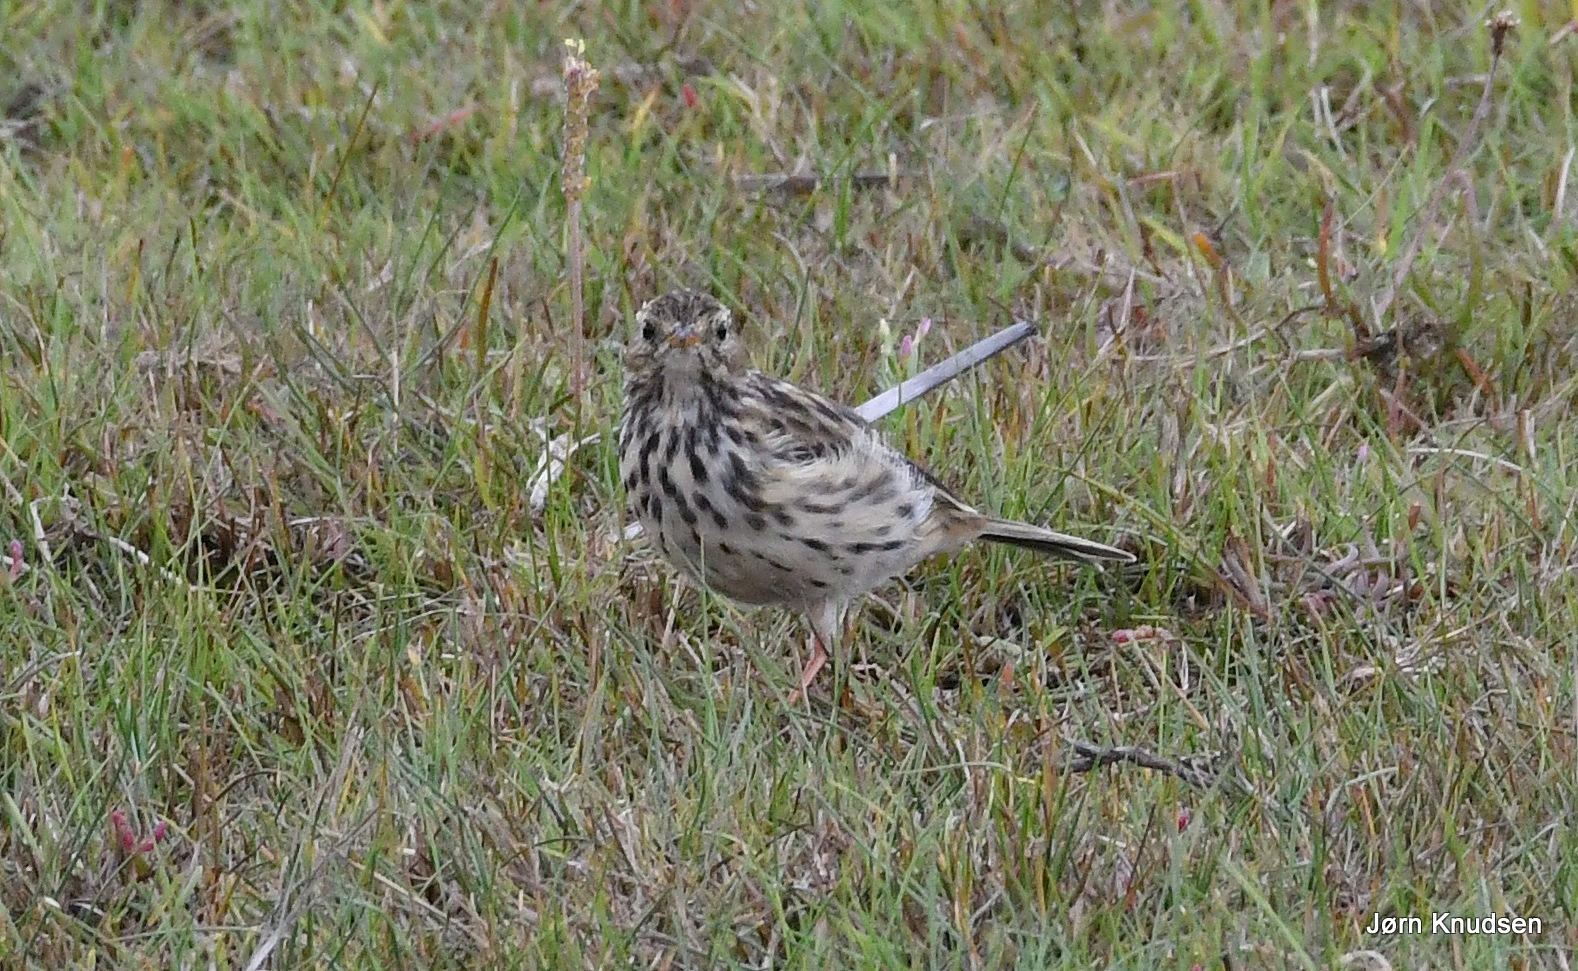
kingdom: Animalia
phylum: Chordata
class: Aves
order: Passeriformes
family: Motacillidae
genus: Anthus
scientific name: Anthus pratensis
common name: Engpiber
